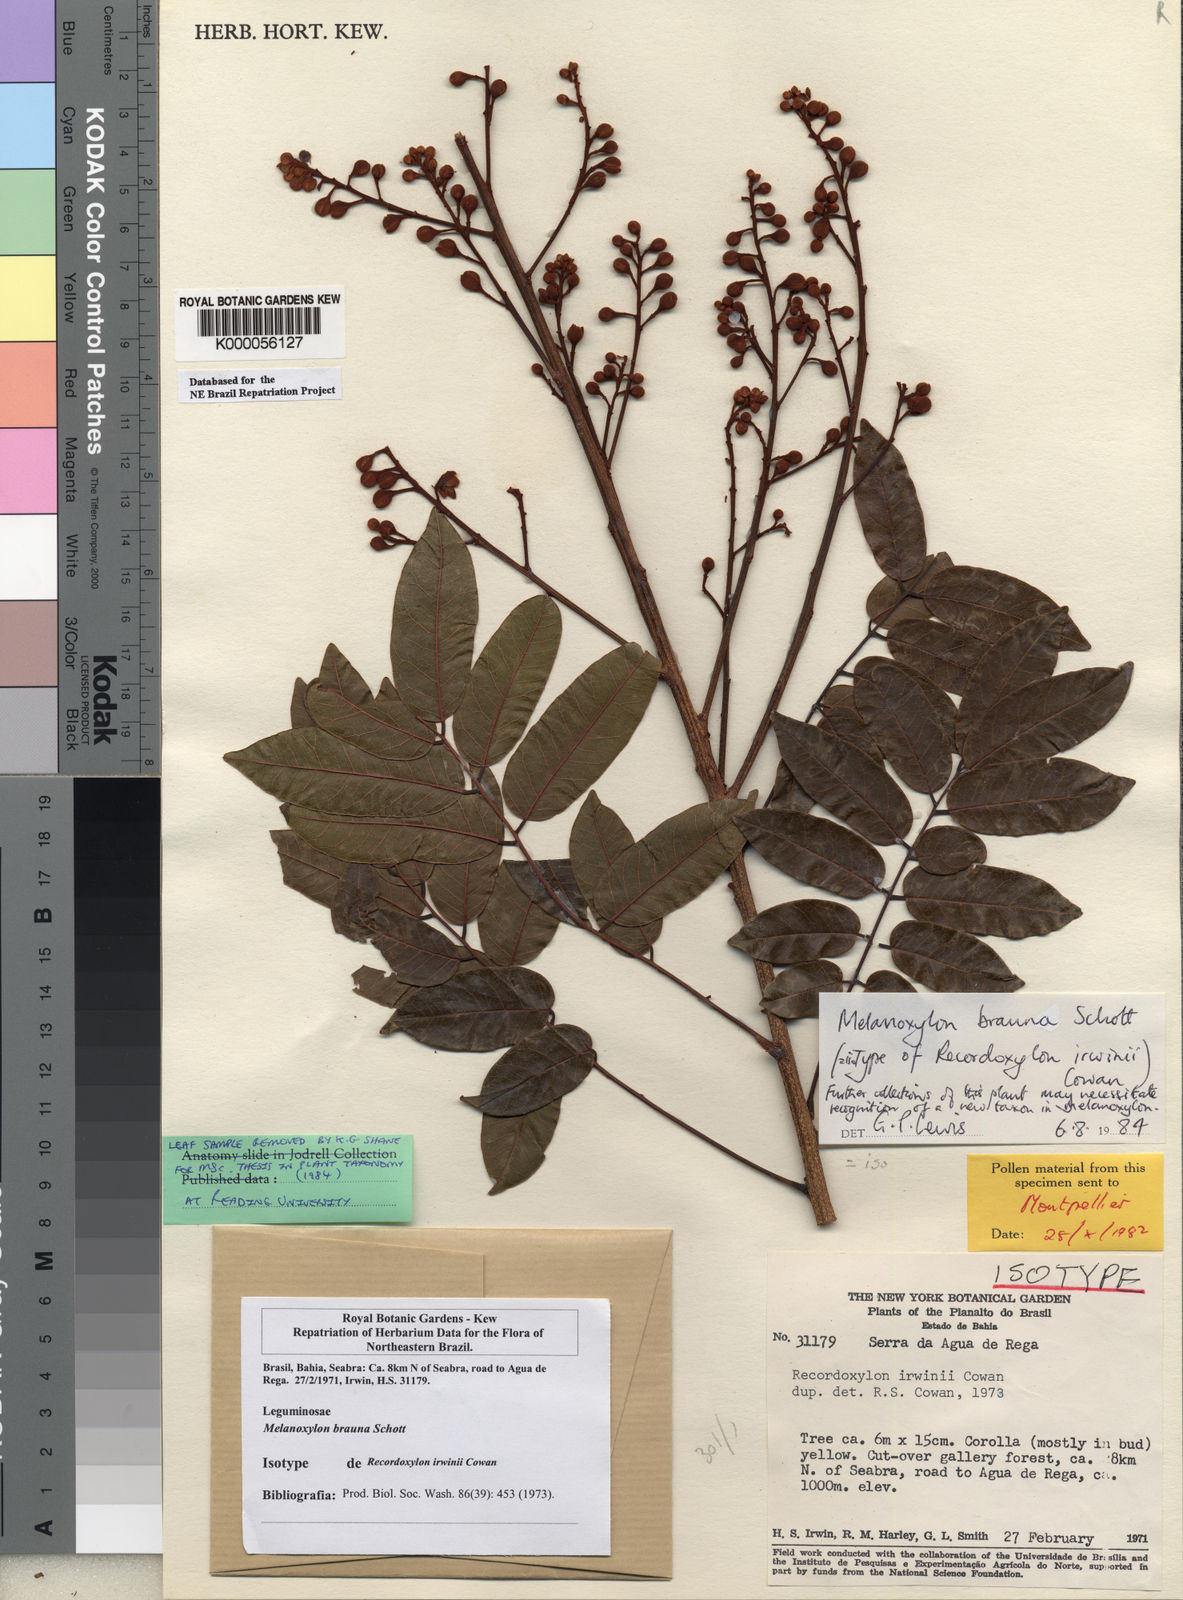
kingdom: Plantae
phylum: Tracheophyta
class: Magnoliopsida
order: Fabales
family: Fabaceae
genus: Melanoxylum
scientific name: Melanoxylum brauna
